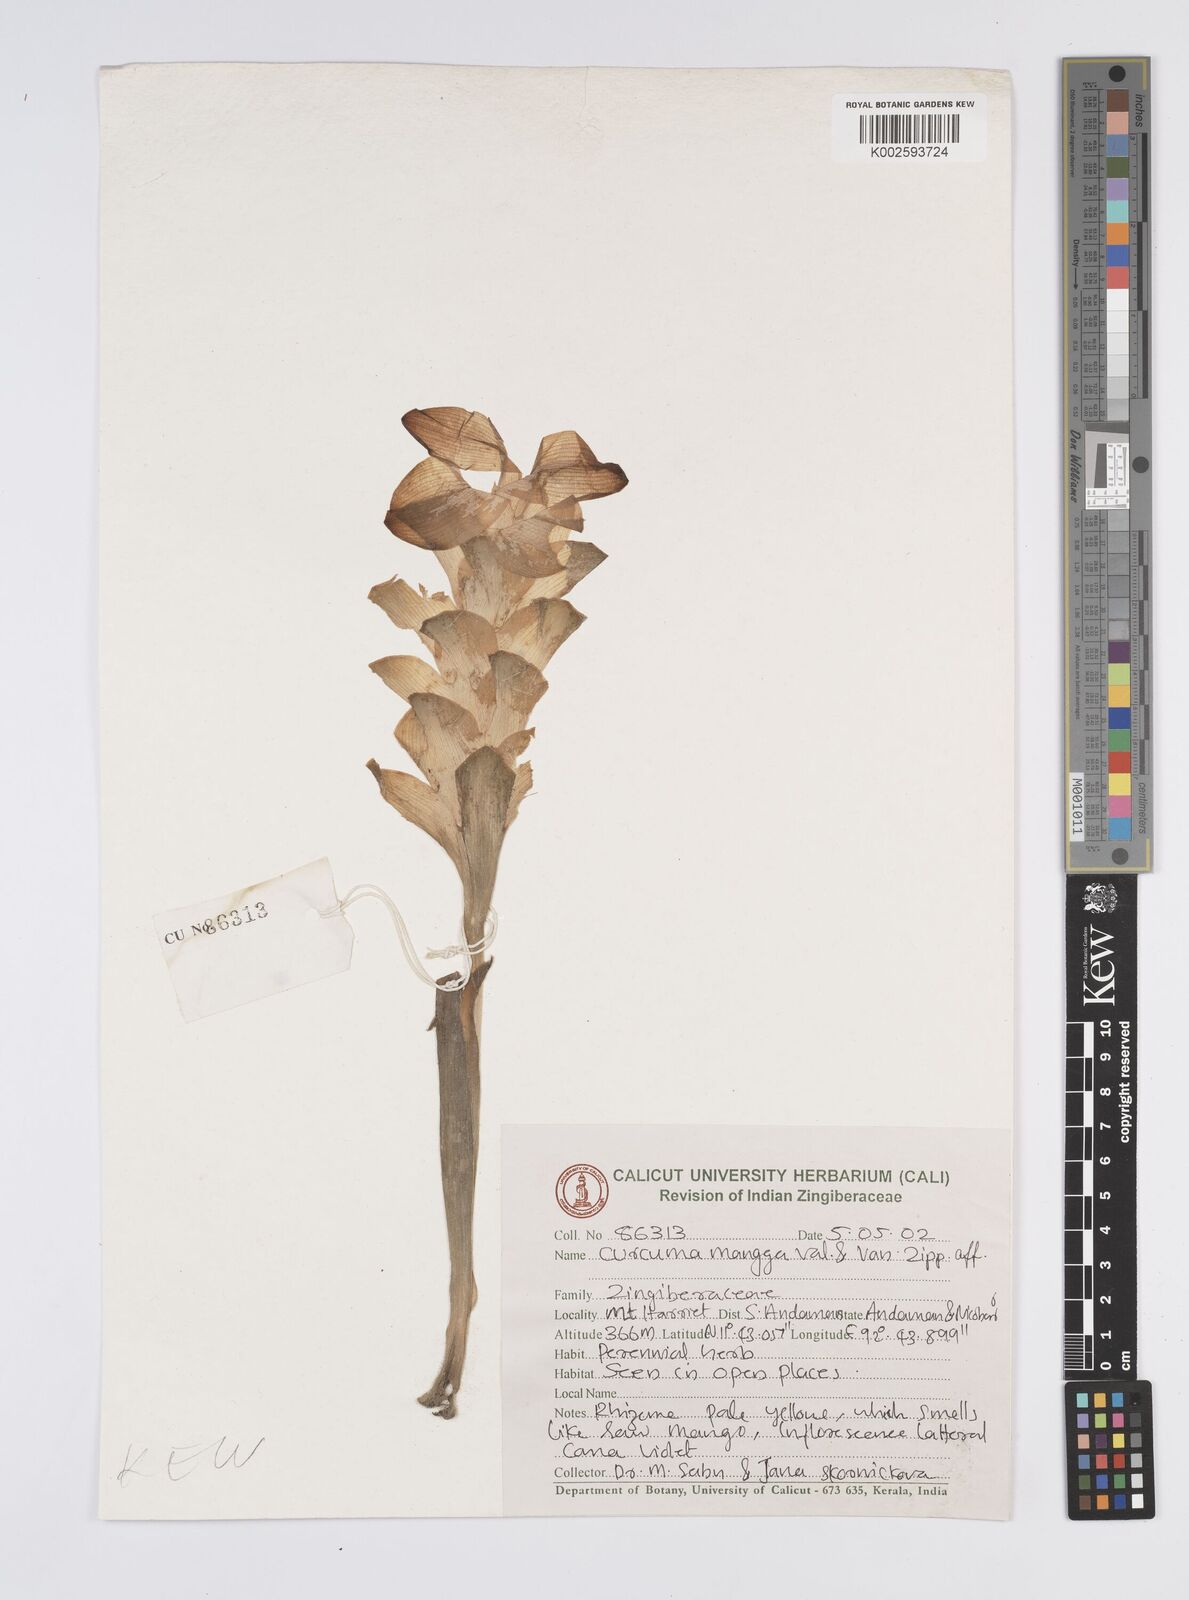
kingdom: Plantae
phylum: Tracheophyta
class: Liliopsida
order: Zingiberales
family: Zingiberaceae
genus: Curcuma
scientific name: Curcuma mangga
